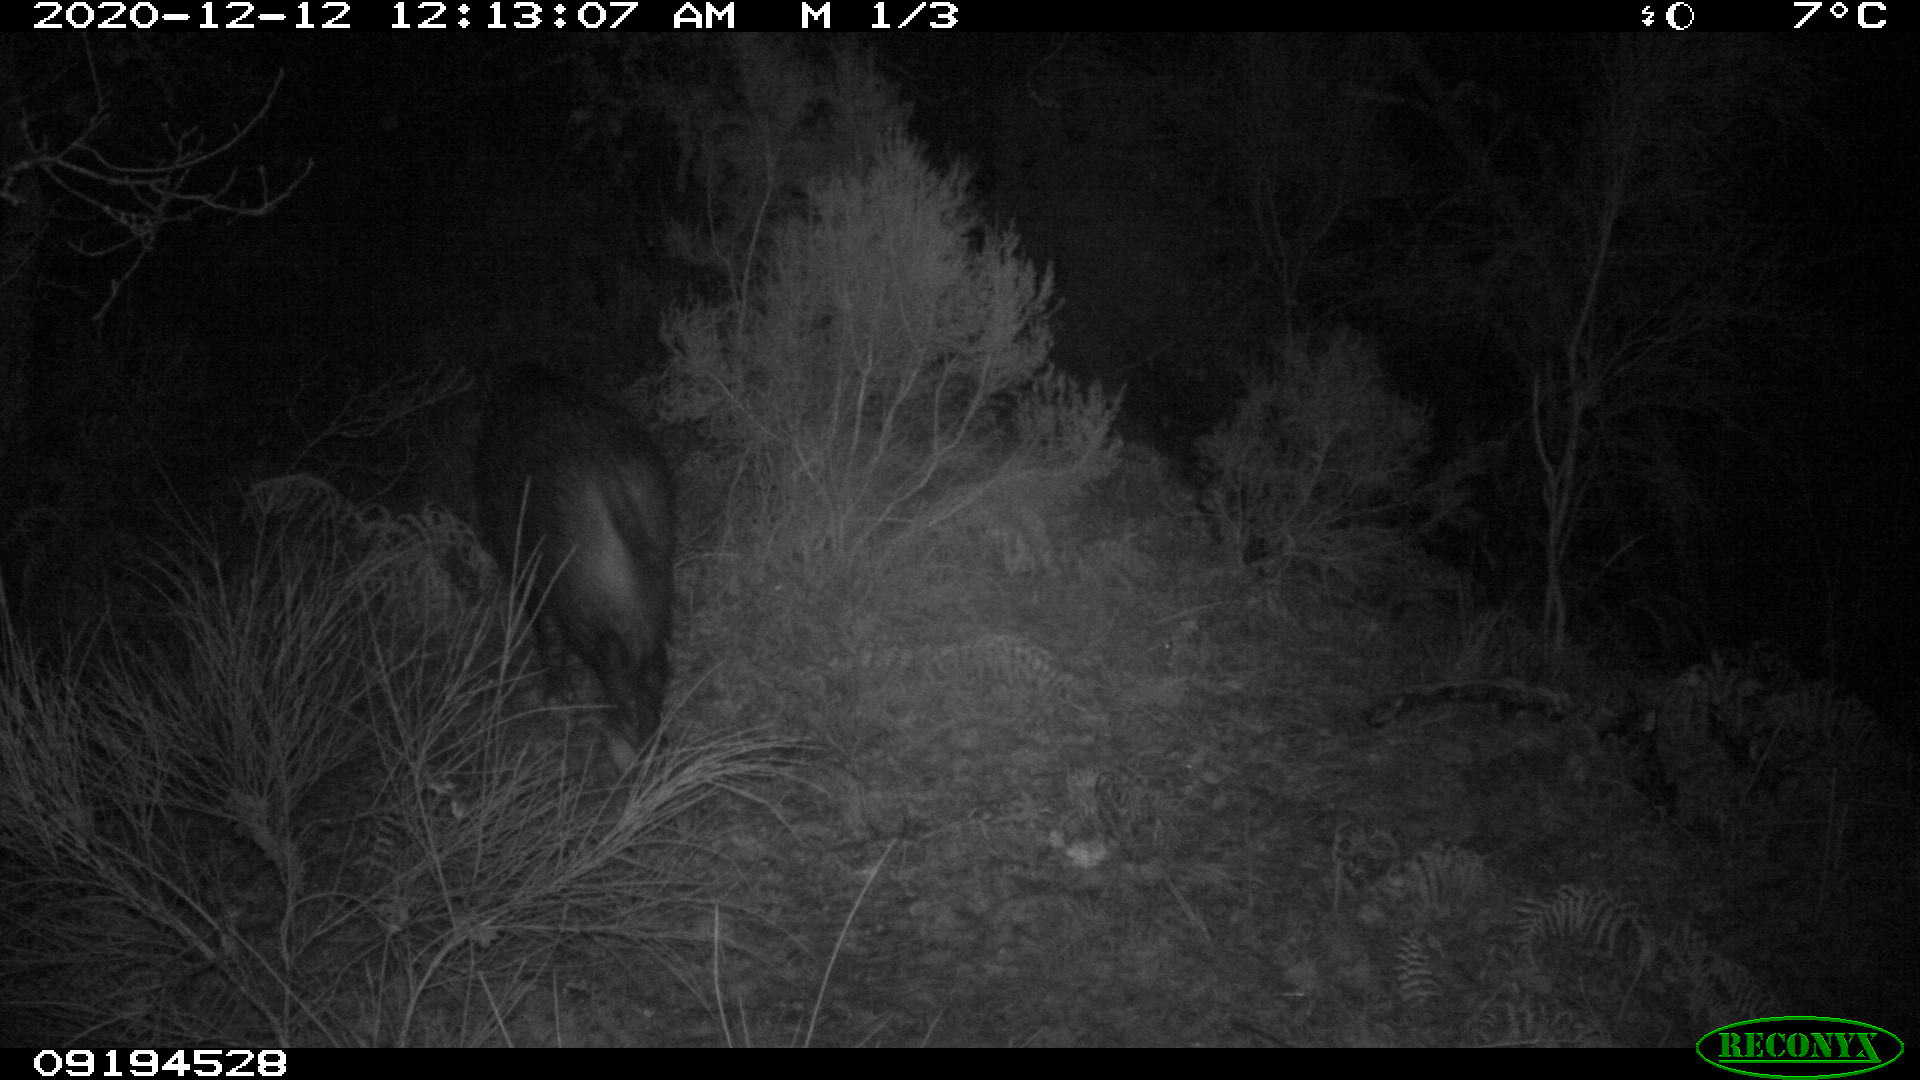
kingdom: Animalia
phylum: Chordata
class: Mammalia
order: Artiodactyla
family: Suidae
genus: Sus
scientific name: Sus scrofa
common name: Wild boar
